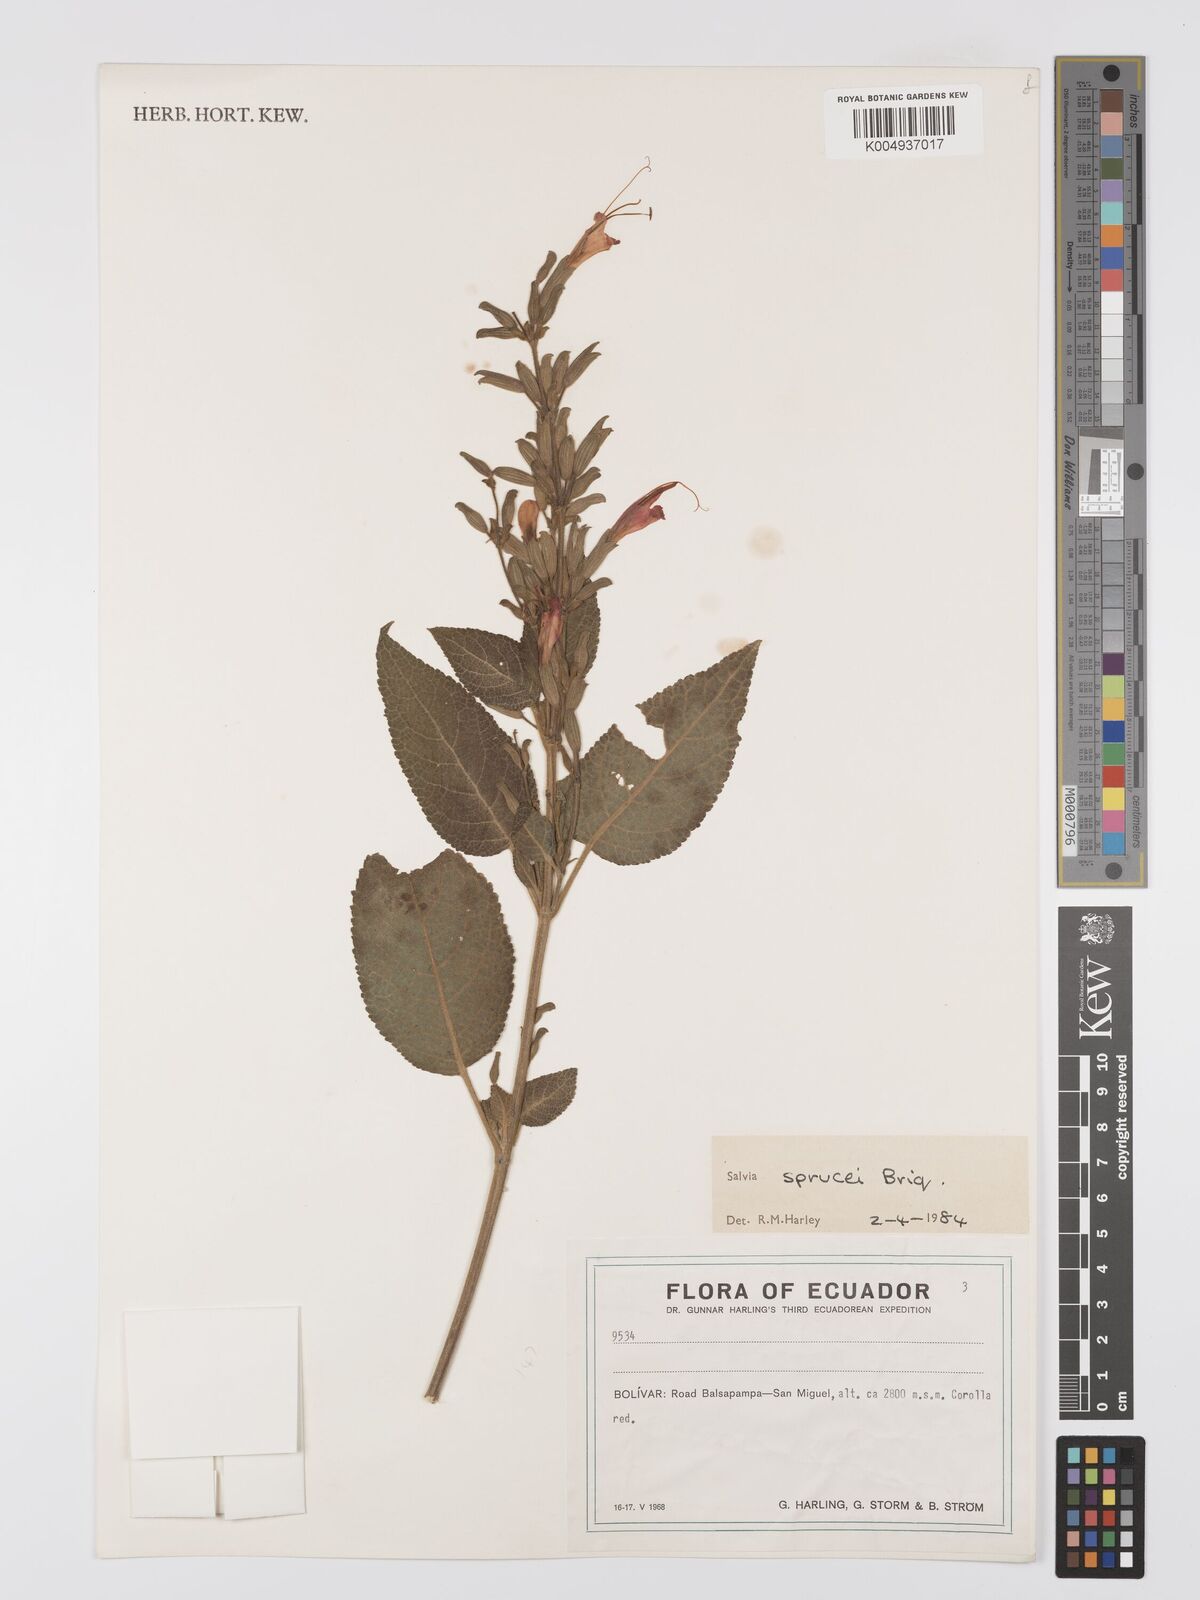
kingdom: Plantae
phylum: Tracheophyta
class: Magnoliopsida
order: Lamiales
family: Lamiaceae
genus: Salvia
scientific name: Salvia sprucei
